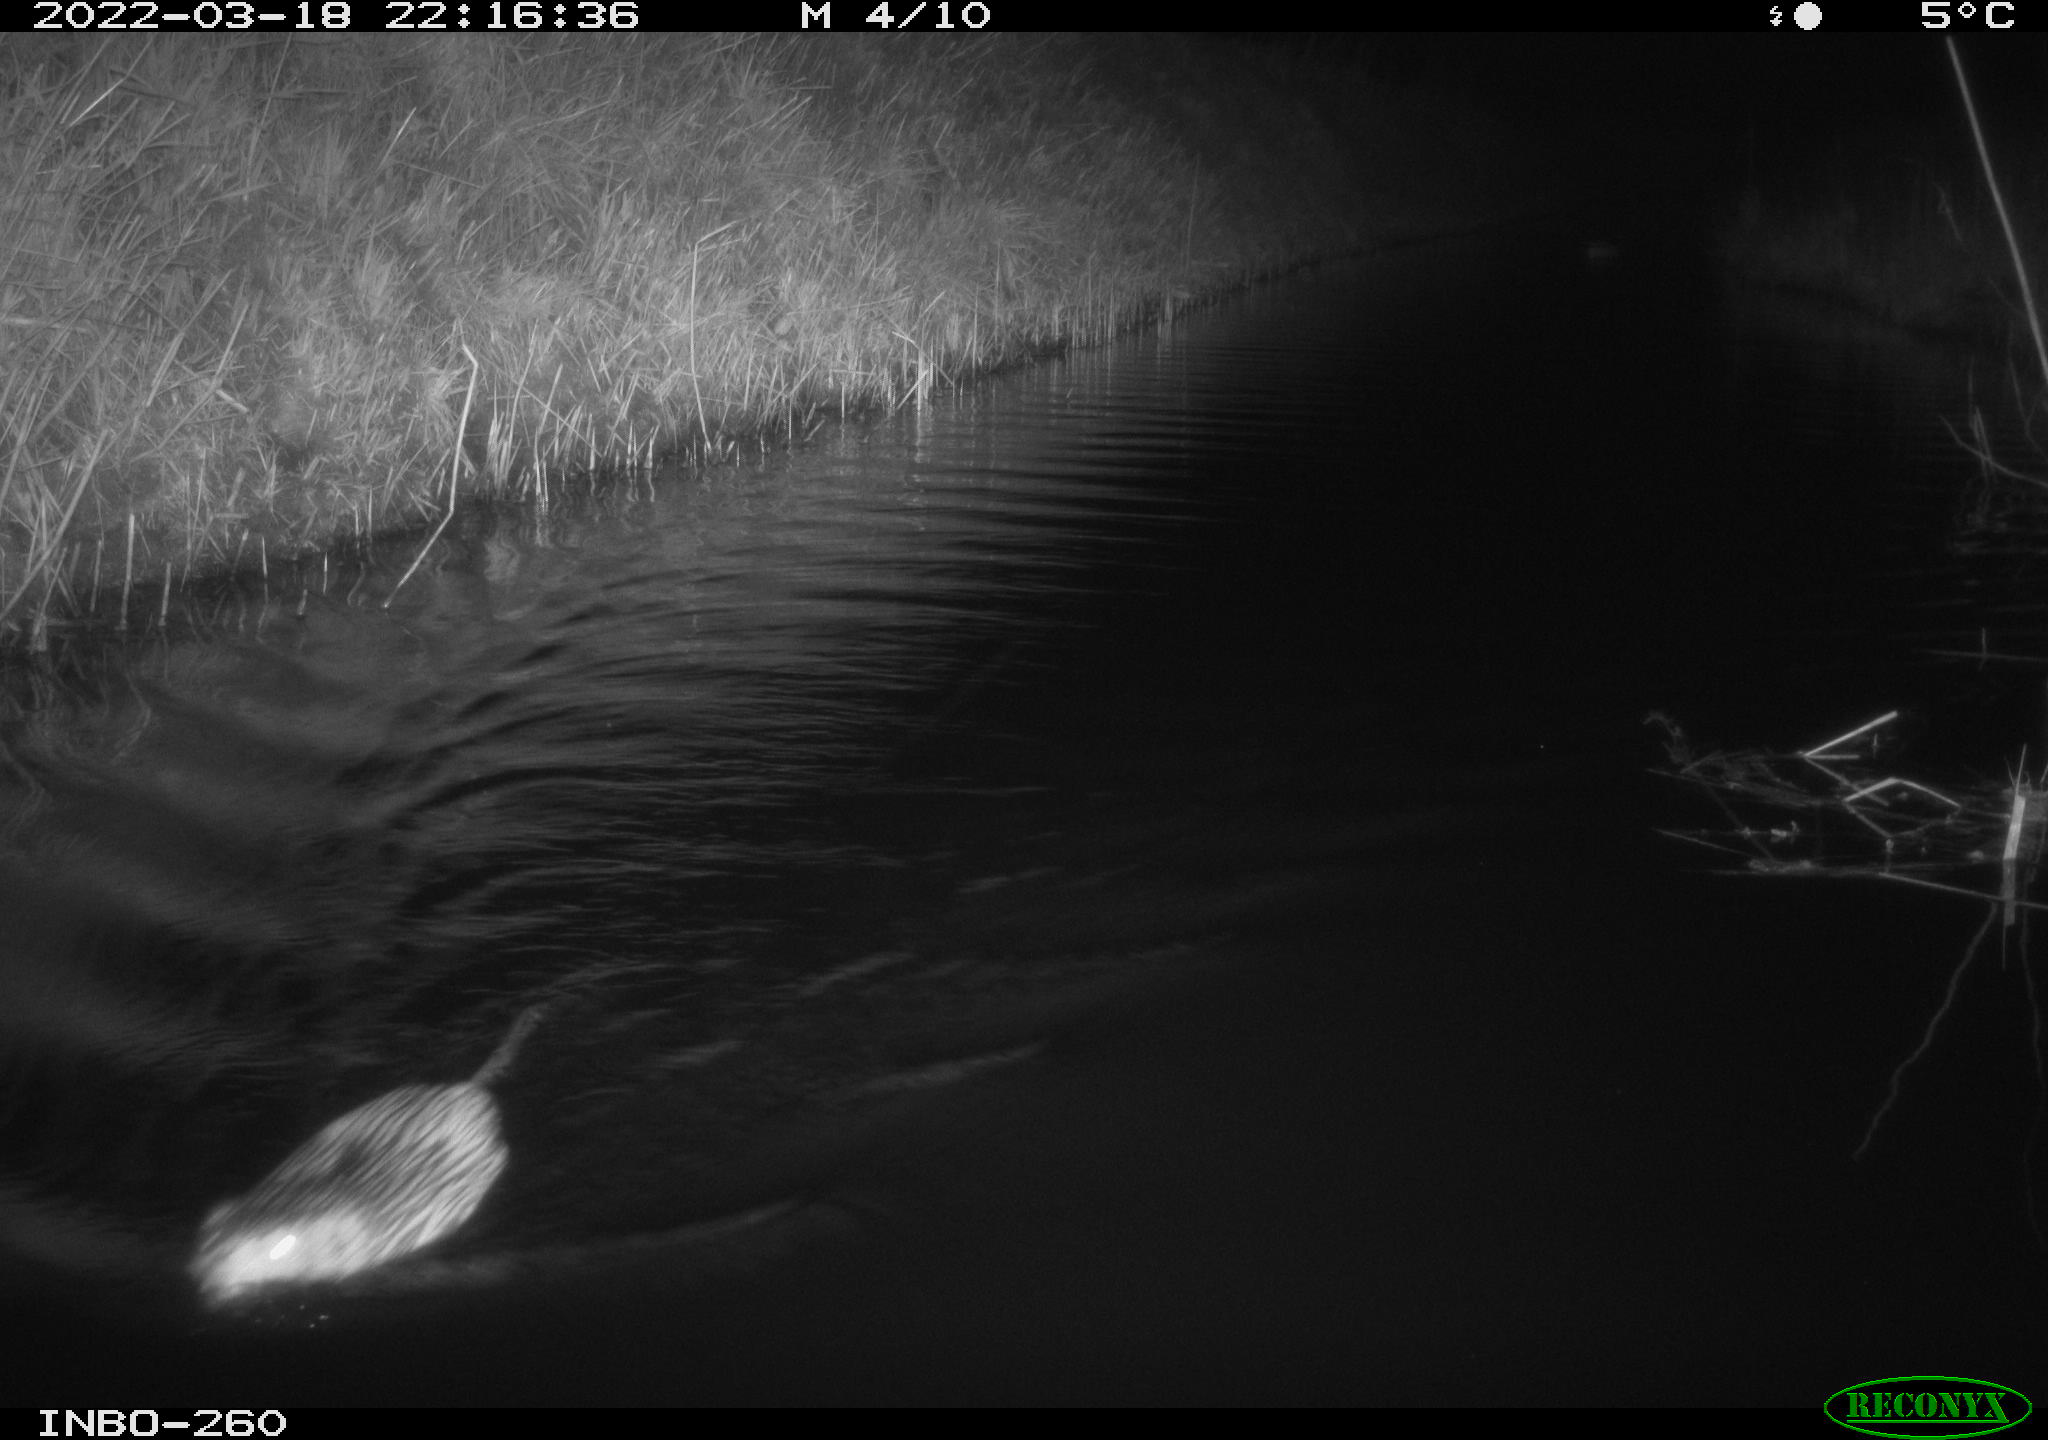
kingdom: Animalia
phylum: Chordata
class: Mammalia
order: Rodentia
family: Cricetidae
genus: Ondatra
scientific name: Ondatra zibethicus
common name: Muskrat
